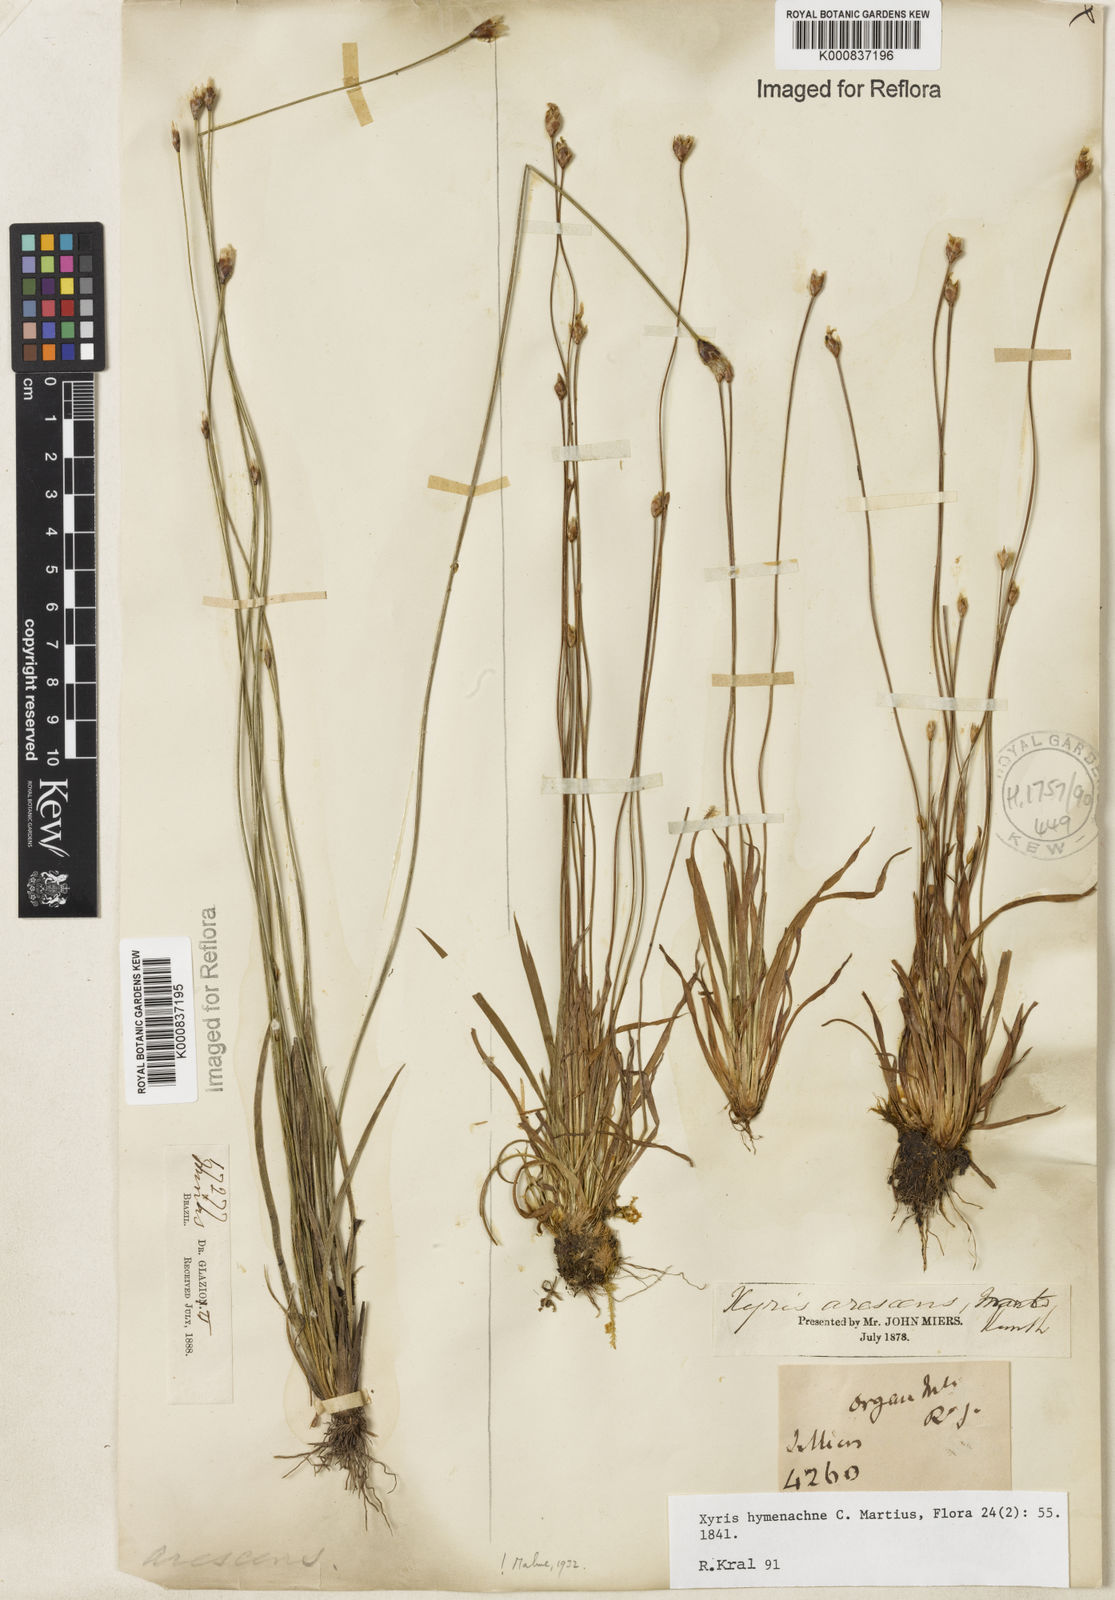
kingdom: Plantae
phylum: Tracheophyta
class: Liliopsida
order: Poales
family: Xyridaceae
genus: Xyris
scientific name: Xyris hymenachne
